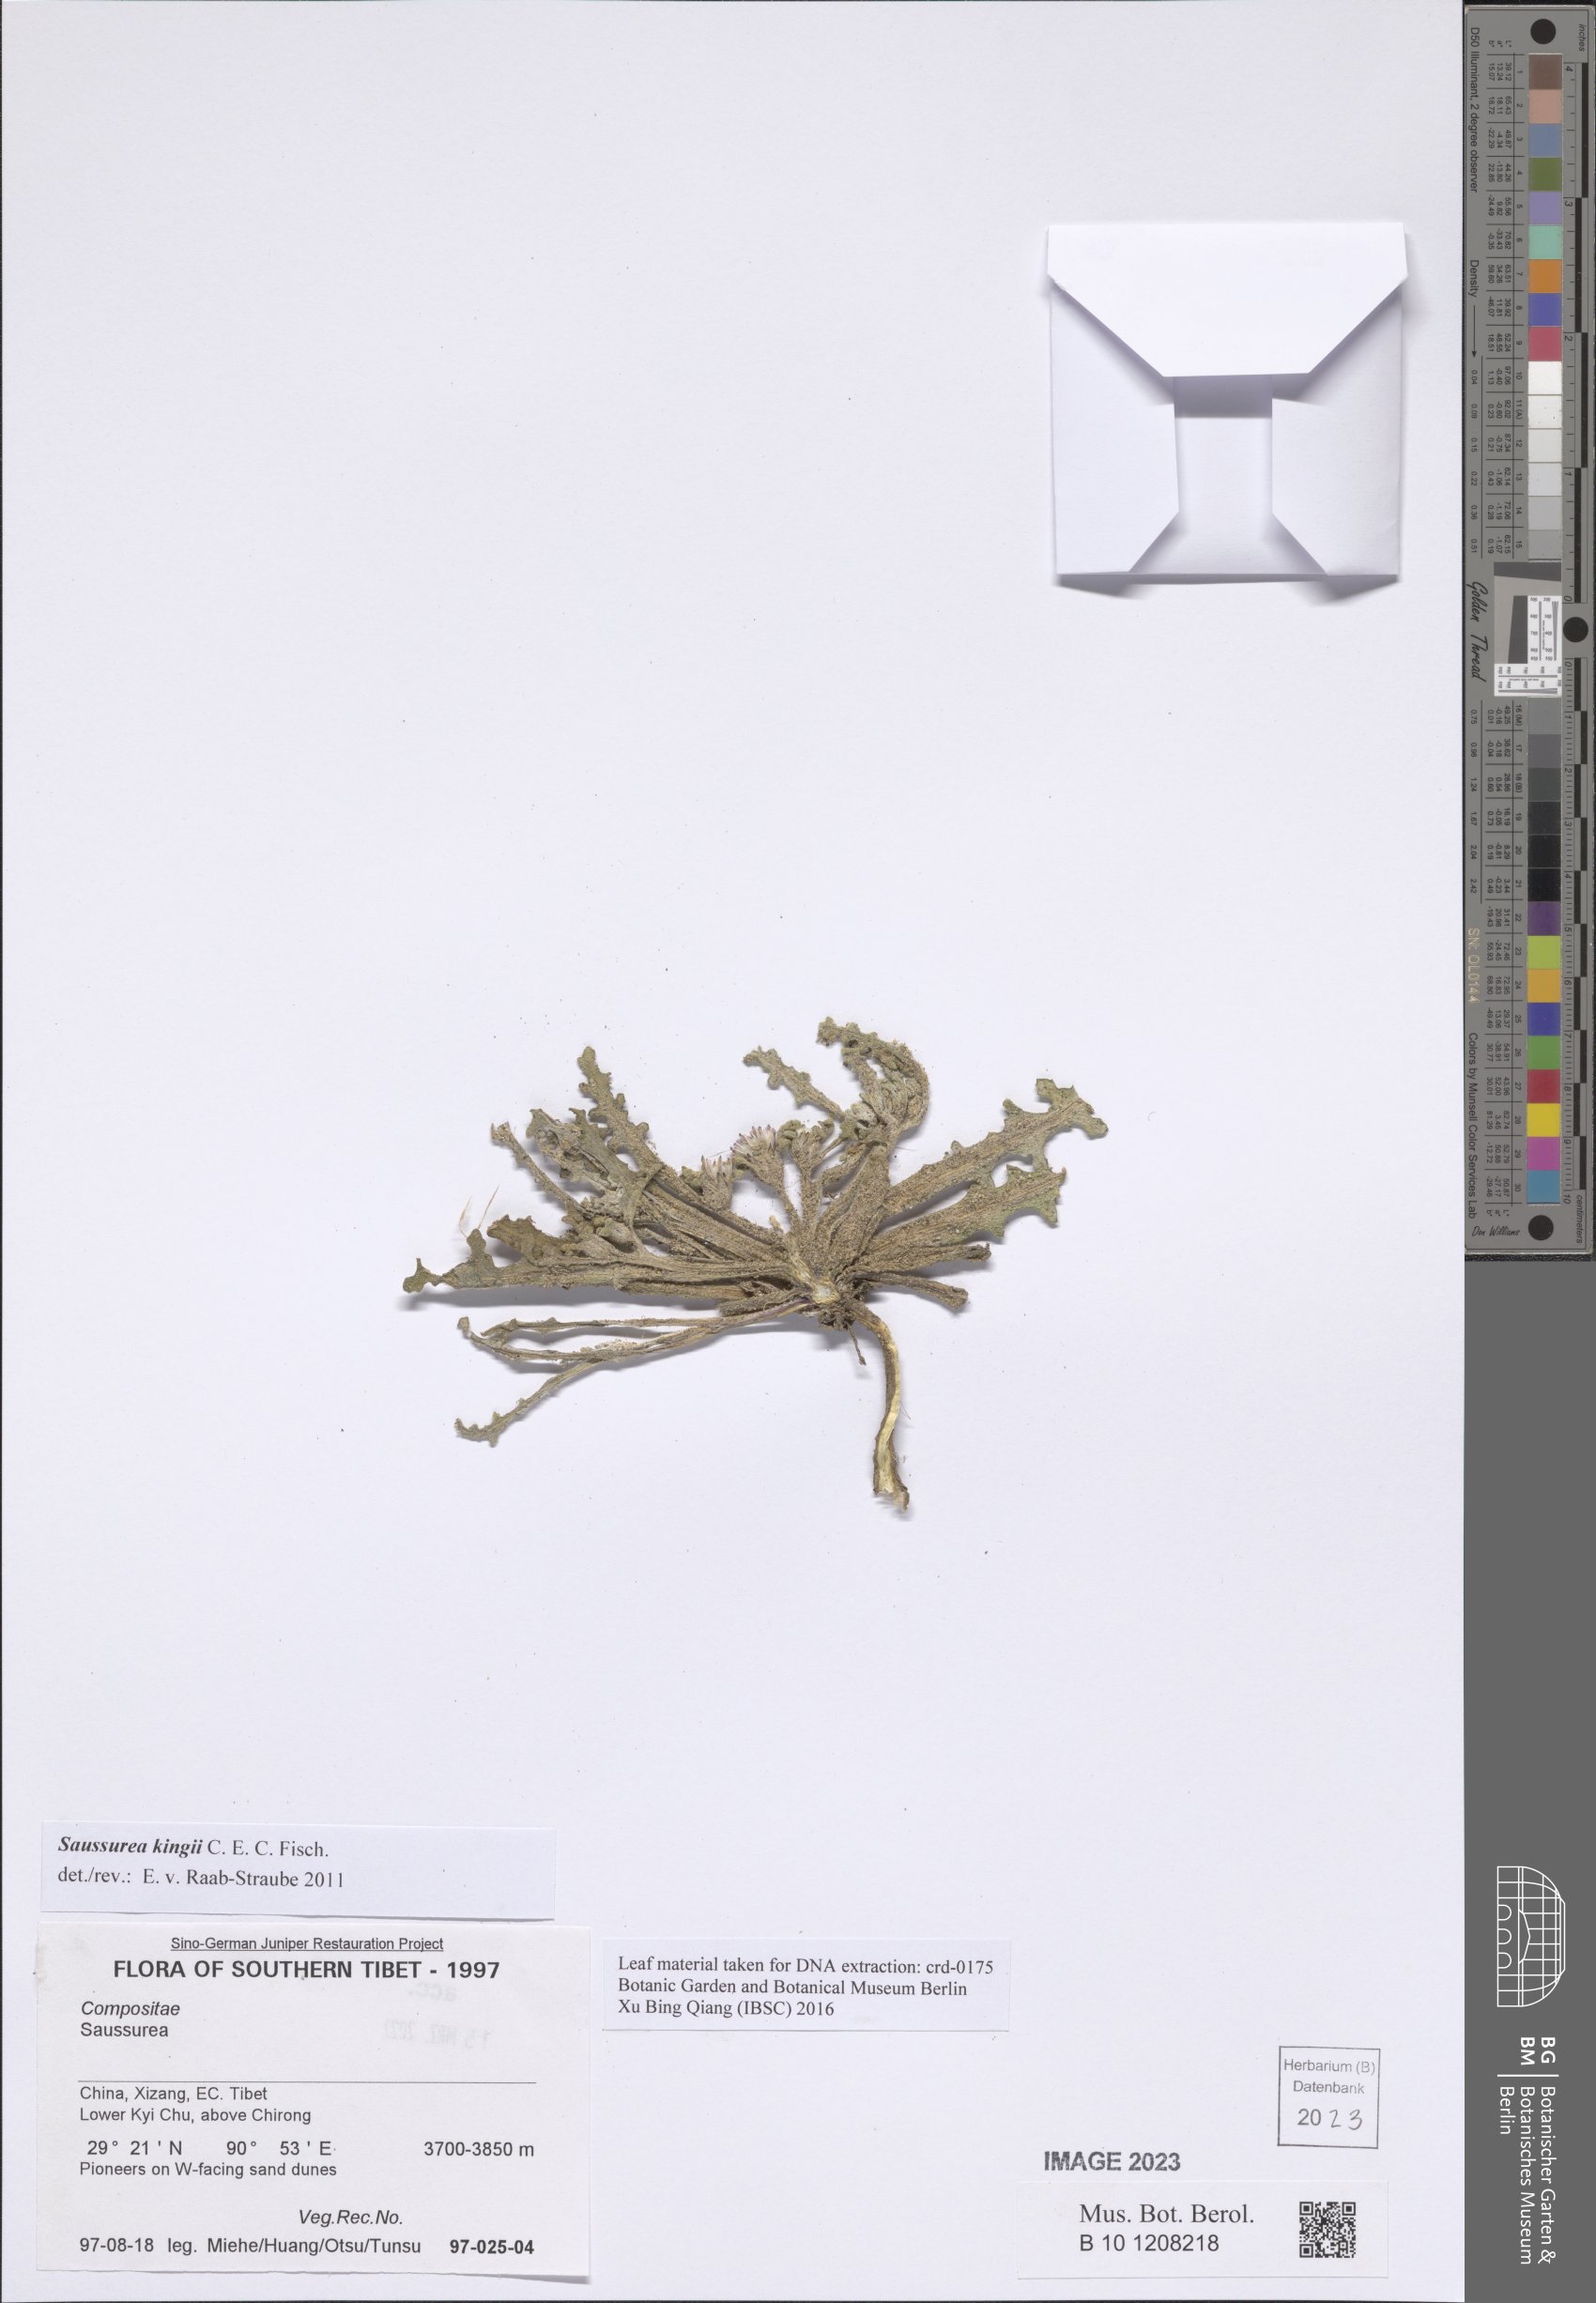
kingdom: Plantae
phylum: Tracheophyta
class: Magnoliopsida
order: Asterales
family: Asteraceae
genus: Saussurea
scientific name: Saussurea kingii
